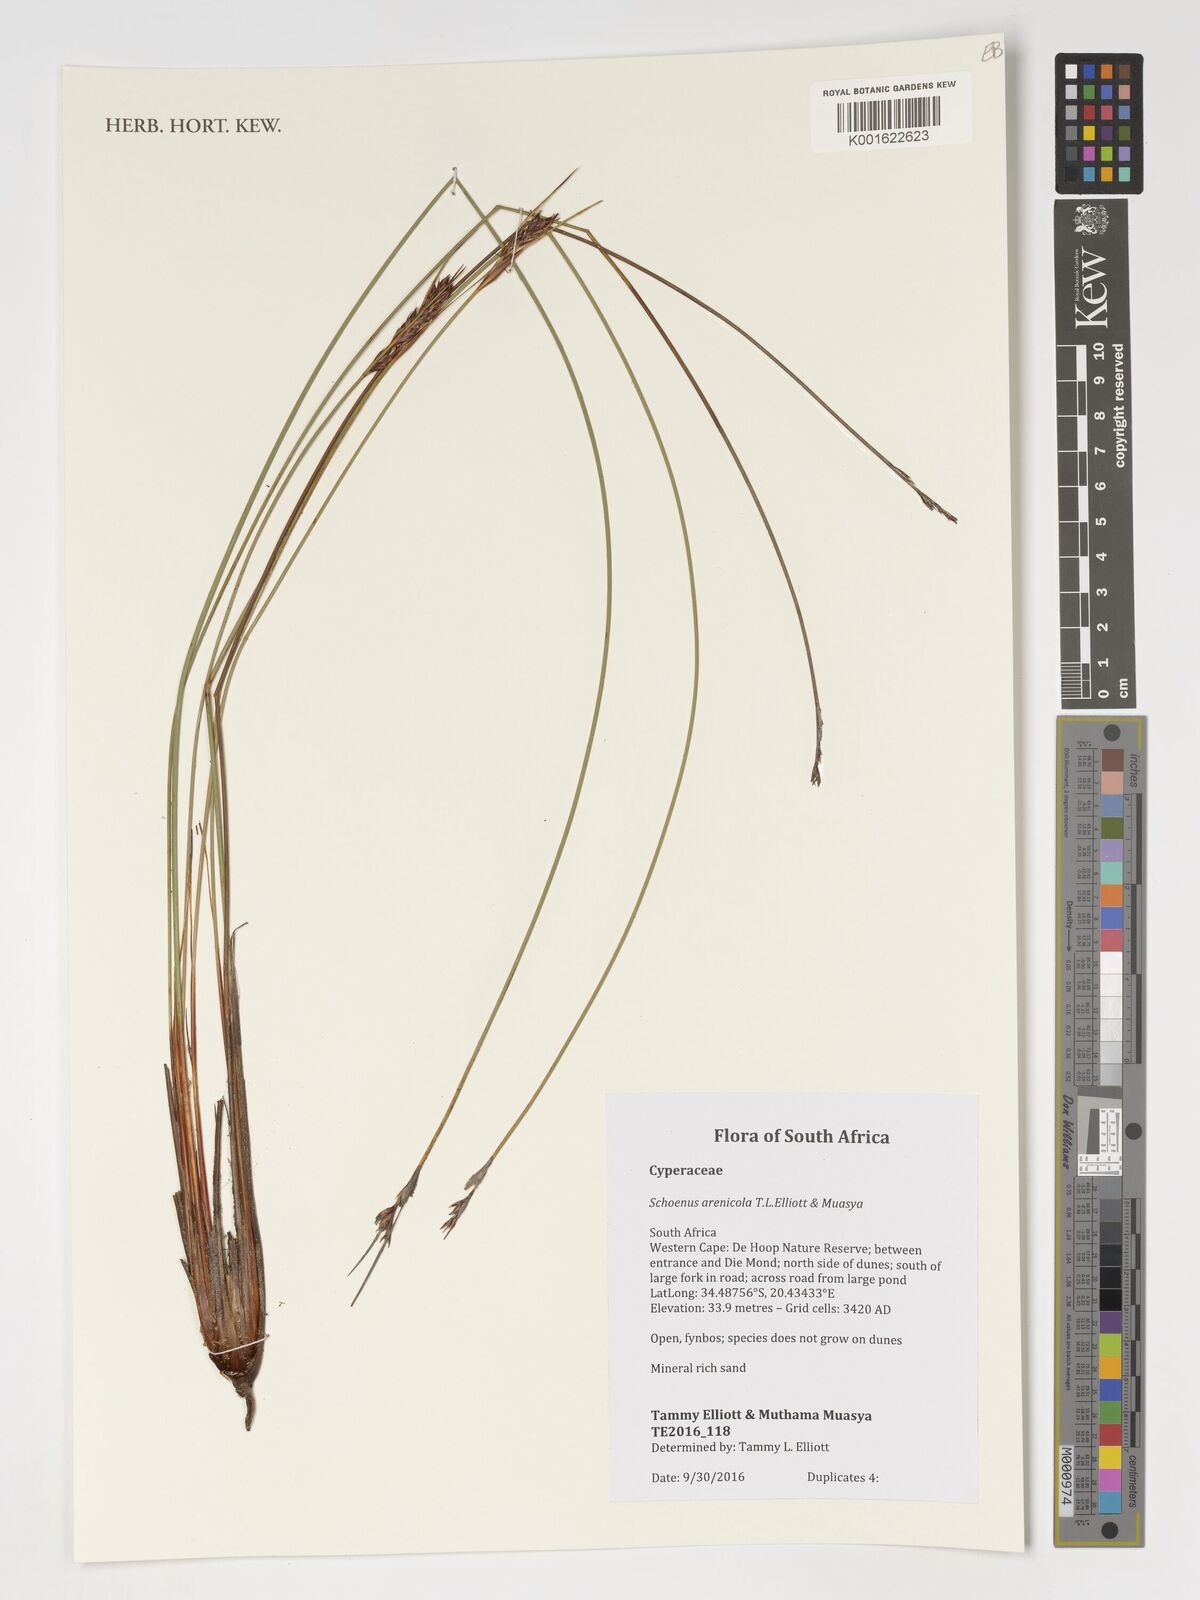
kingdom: Plantae
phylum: Tracheophyta
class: Liliopsida
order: Poales
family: Cyperaceae
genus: Schoenus
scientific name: Schoenus arenicola
